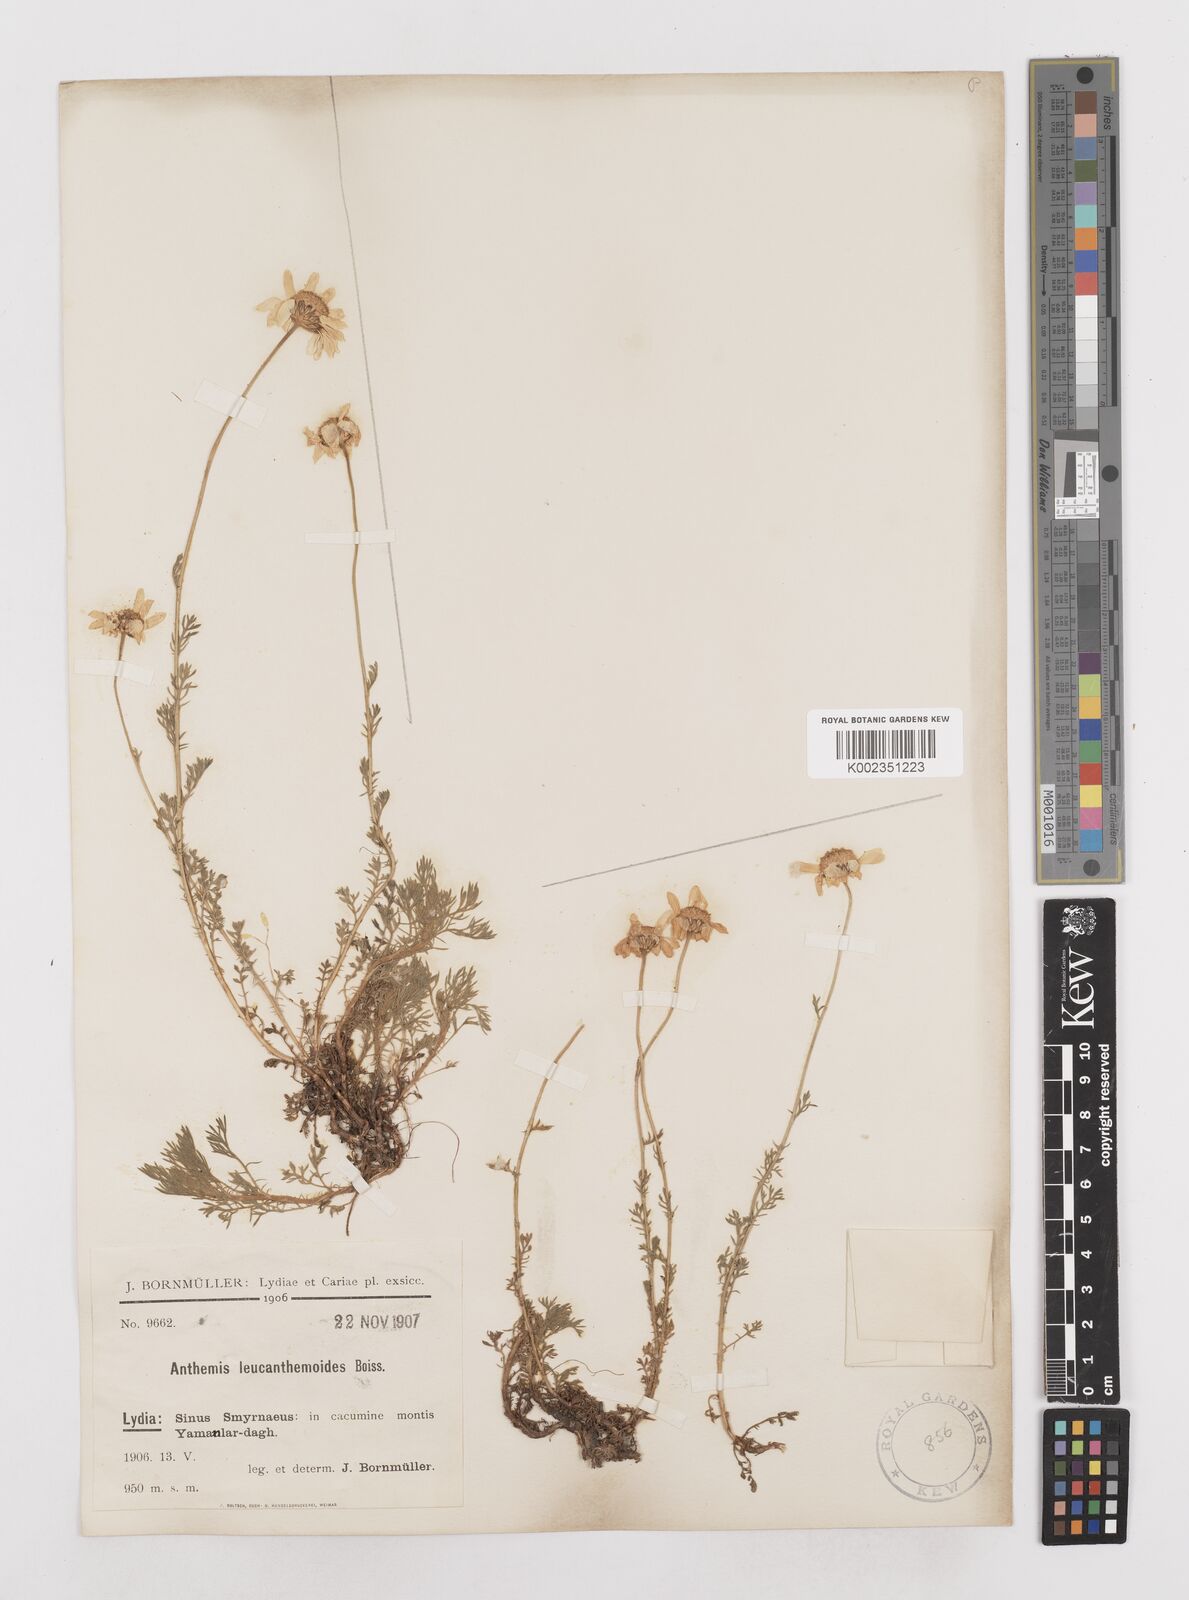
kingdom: Plantae
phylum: Tracheophyta
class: Magnoliopsida
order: Asterales
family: Asteraceae
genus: Anthemis
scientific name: Anthemis cretica
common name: Mountain dog-daisy
